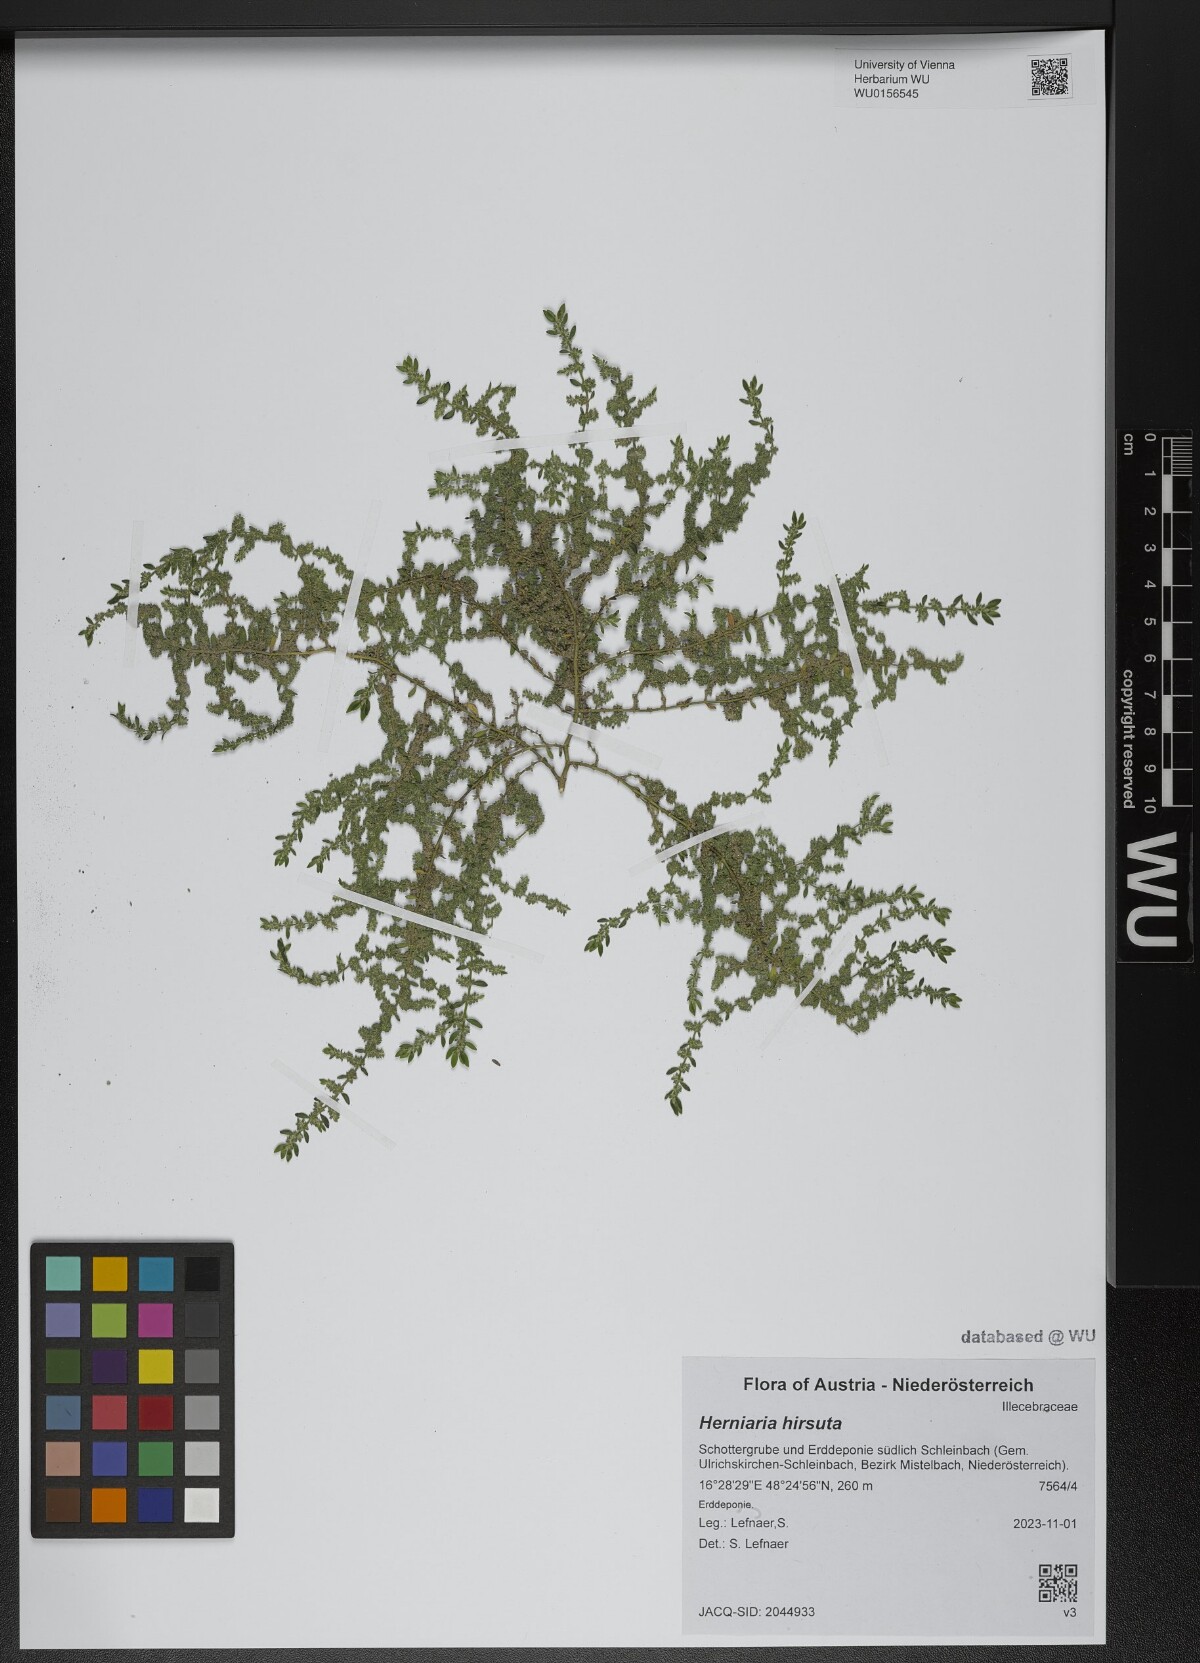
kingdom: Plantae
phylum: Tracheophyta
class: Magnoliopsida
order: Caryophyllales
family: Caryophyllaceae
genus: Herniaria
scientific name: Herniaria hirsuta
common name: Hairy rupturewort
